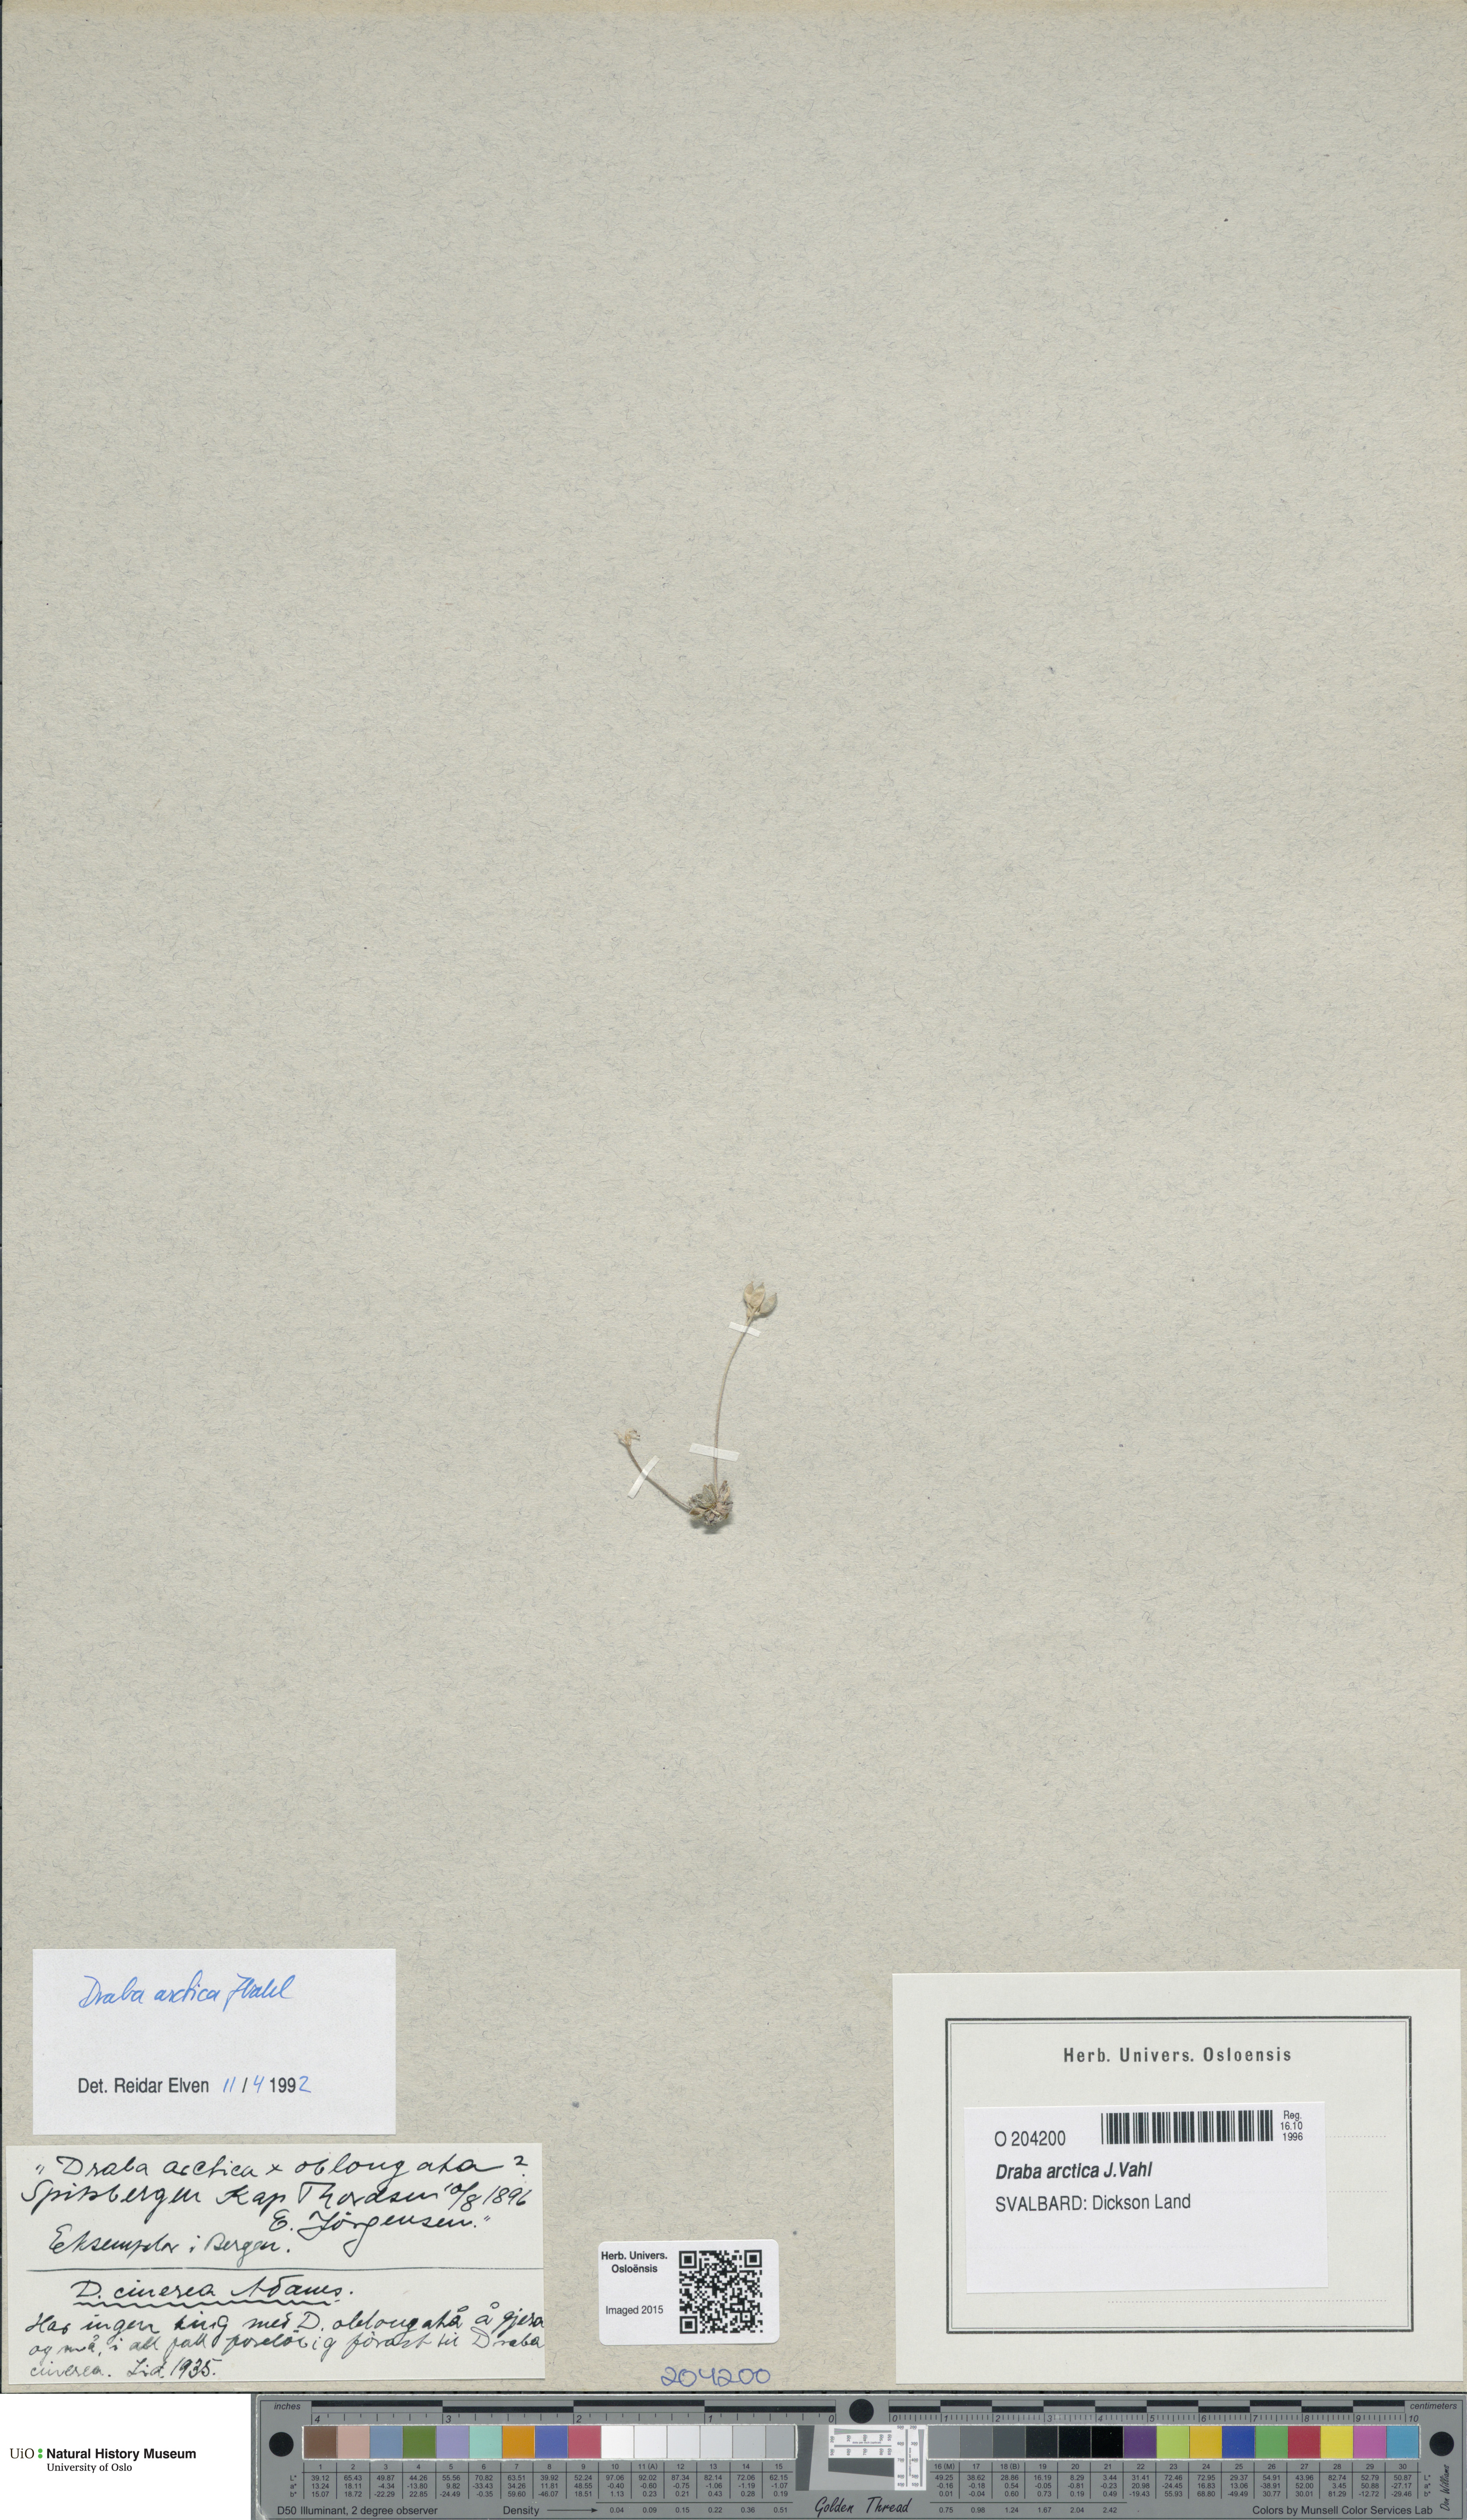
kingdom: Plantae
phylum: Tracheophyta
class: Magnoliopsida
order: Brassicales
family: Brassicaceae
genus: Draba
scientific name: Draba arctica
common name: Arctic draba
